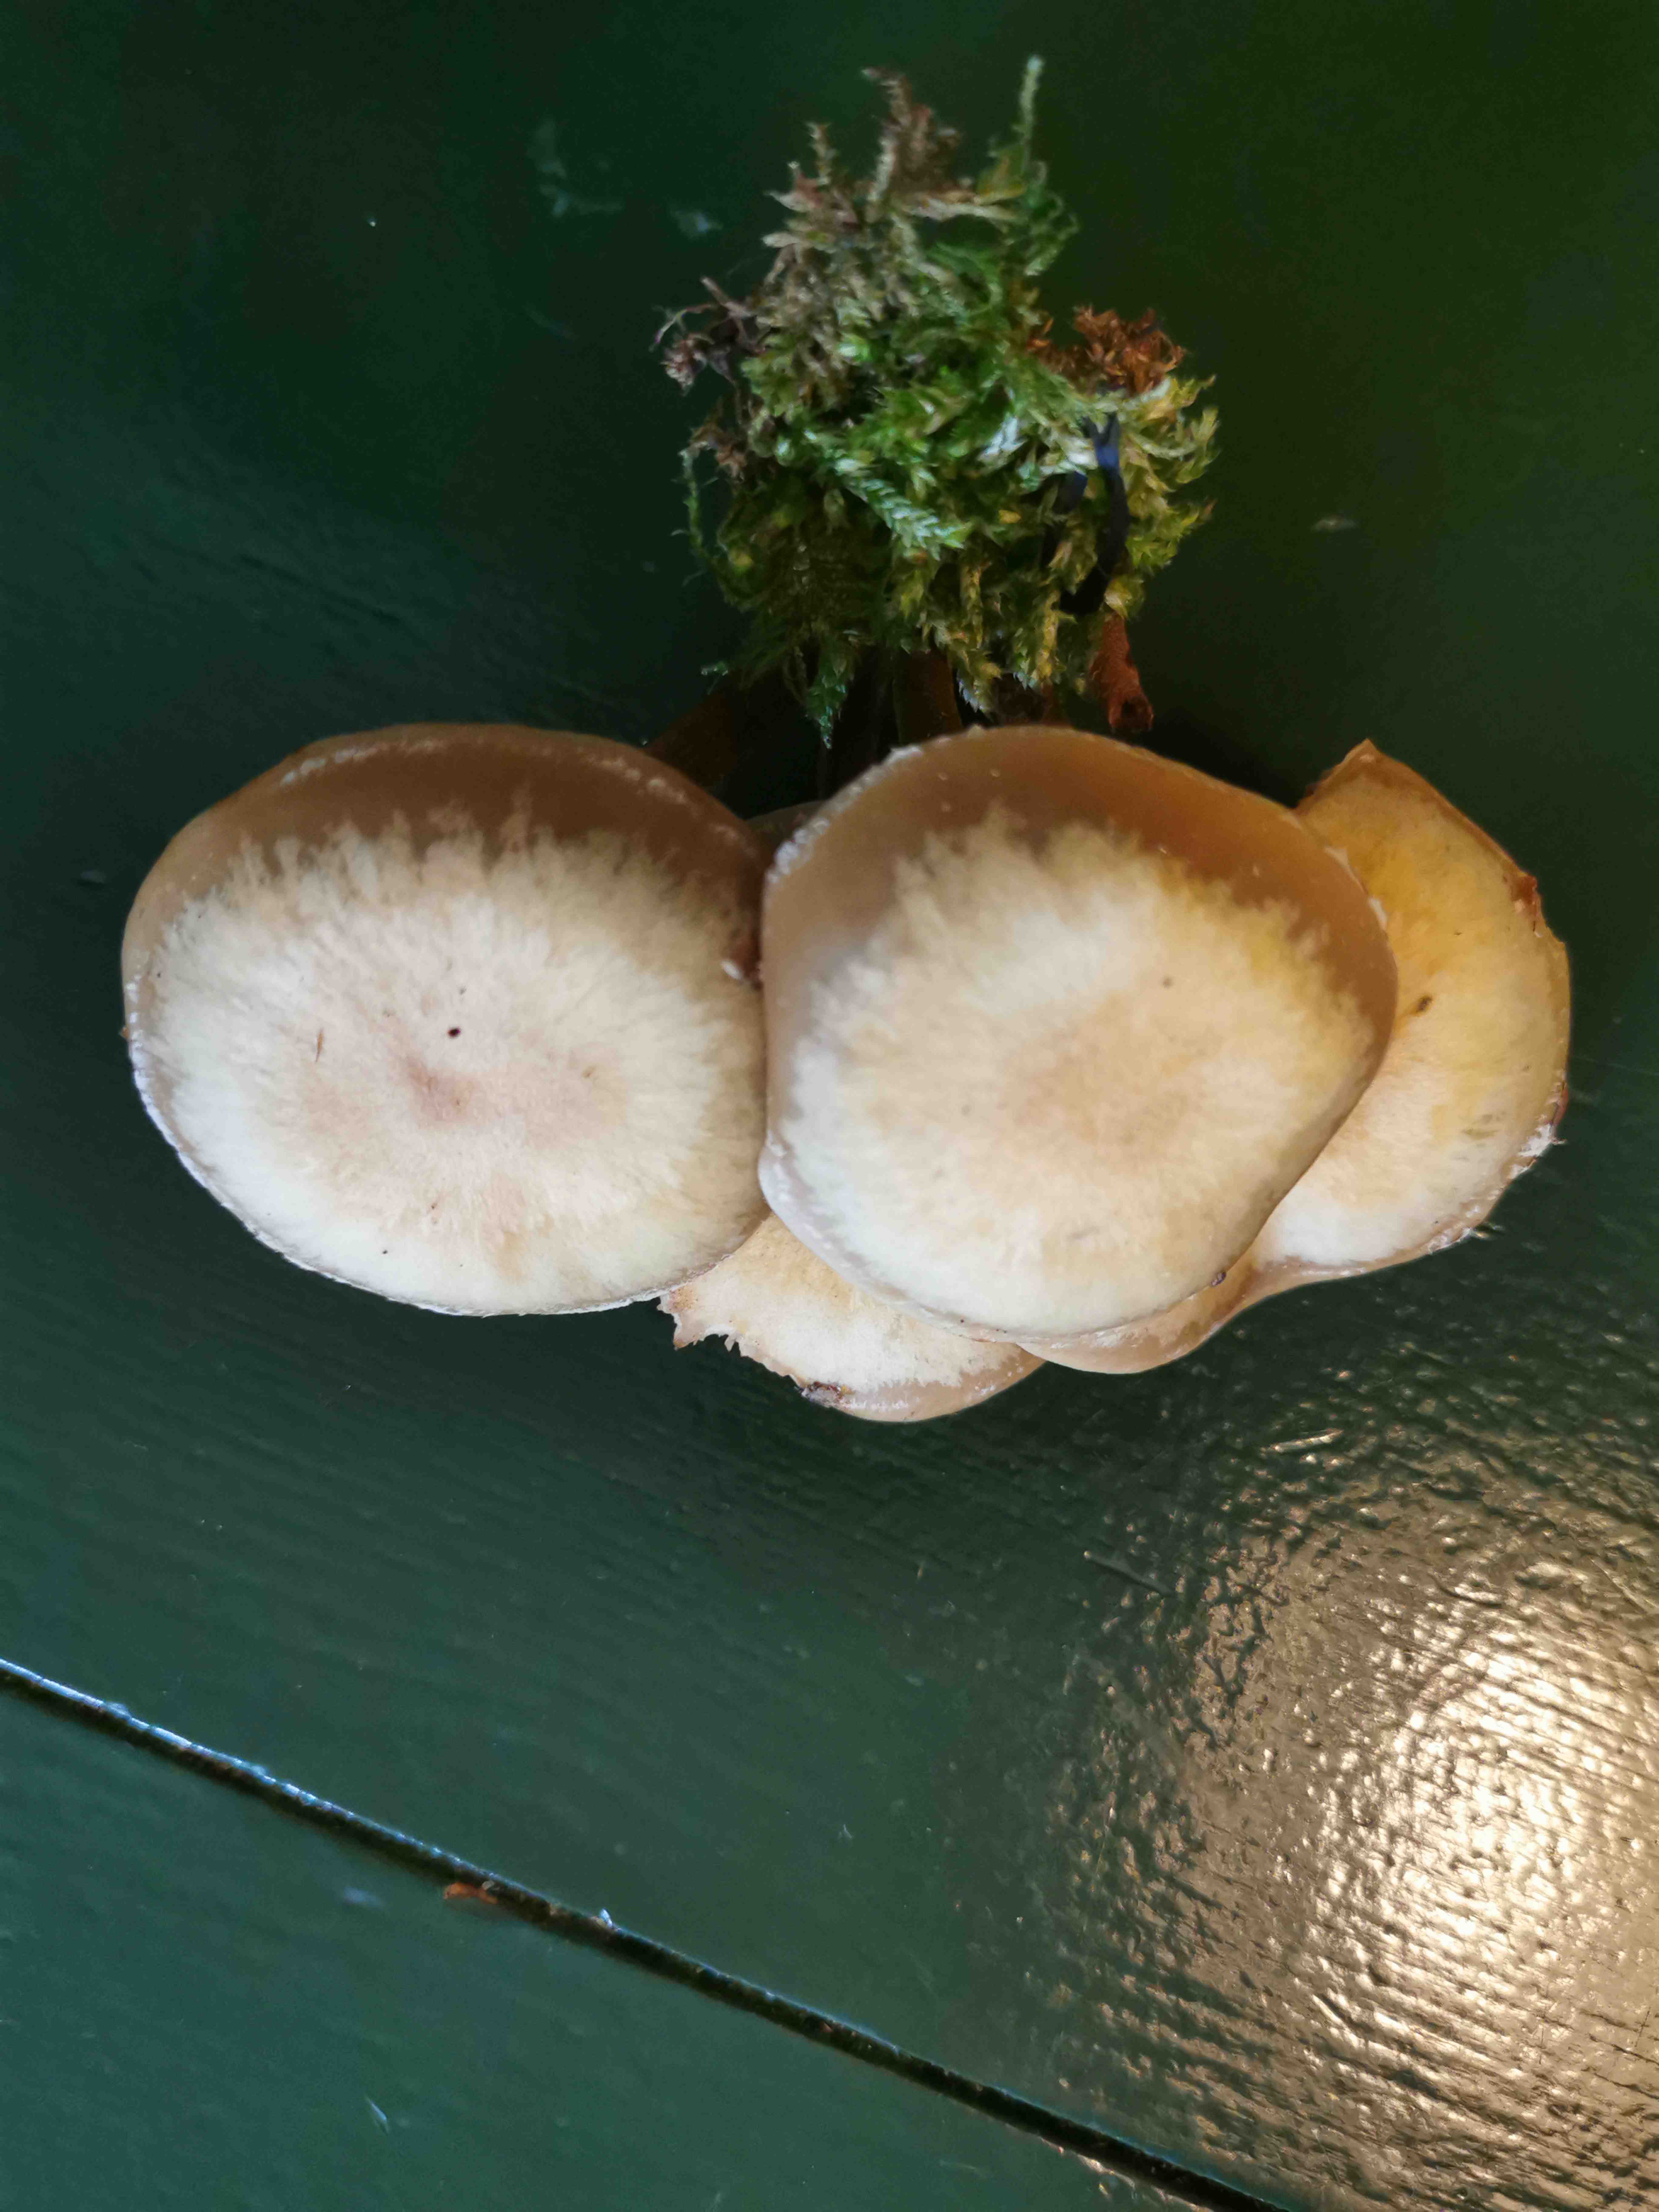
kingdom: Fungi
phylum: Basidiomycota
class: Agaricomycetes
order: Agaricales
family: Strophariaceae
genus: Kuehneromyces
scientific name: Kuehneromyces mutabilis
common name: foranderlig skælhat
